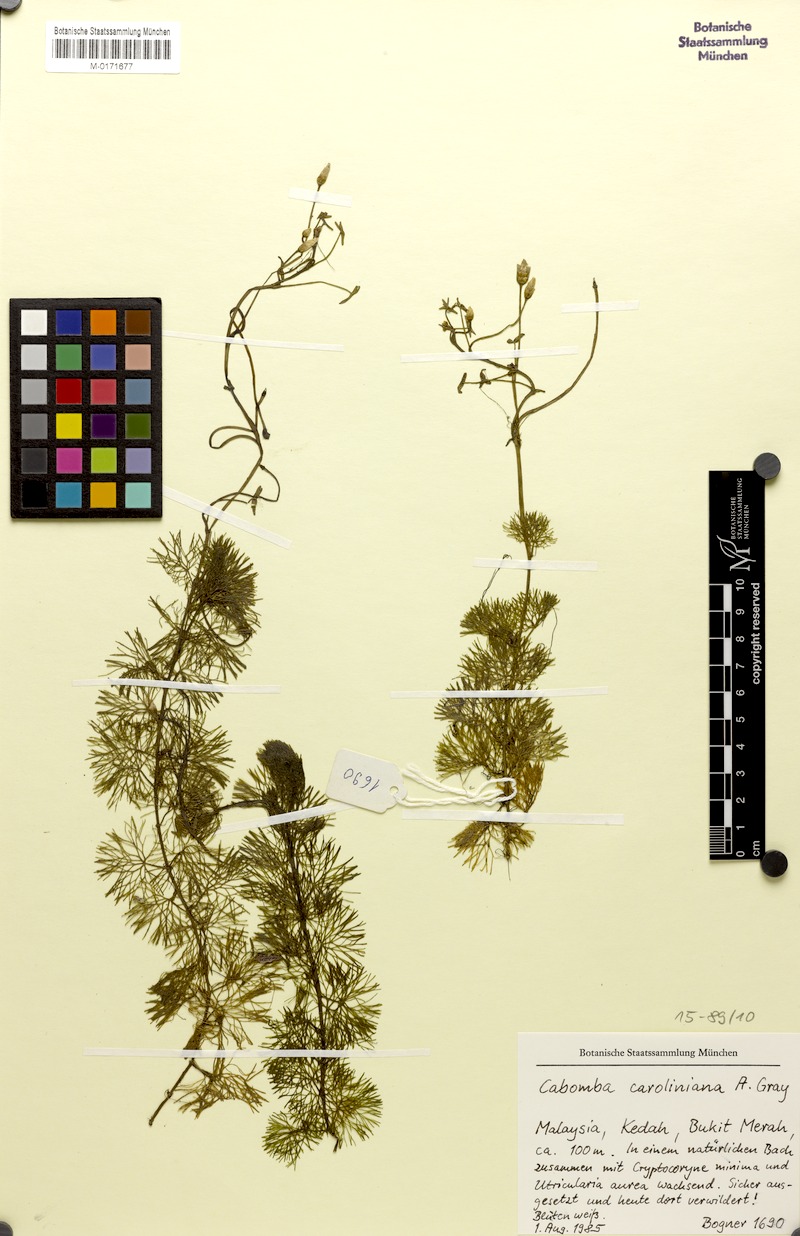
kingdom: Plantae
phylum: Tracheophyta
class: Magnoliopsida
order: Nymphaeales
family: Cabombaceae
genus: Cabomba
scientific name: Cabomba caroliniana
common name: Fanwort
